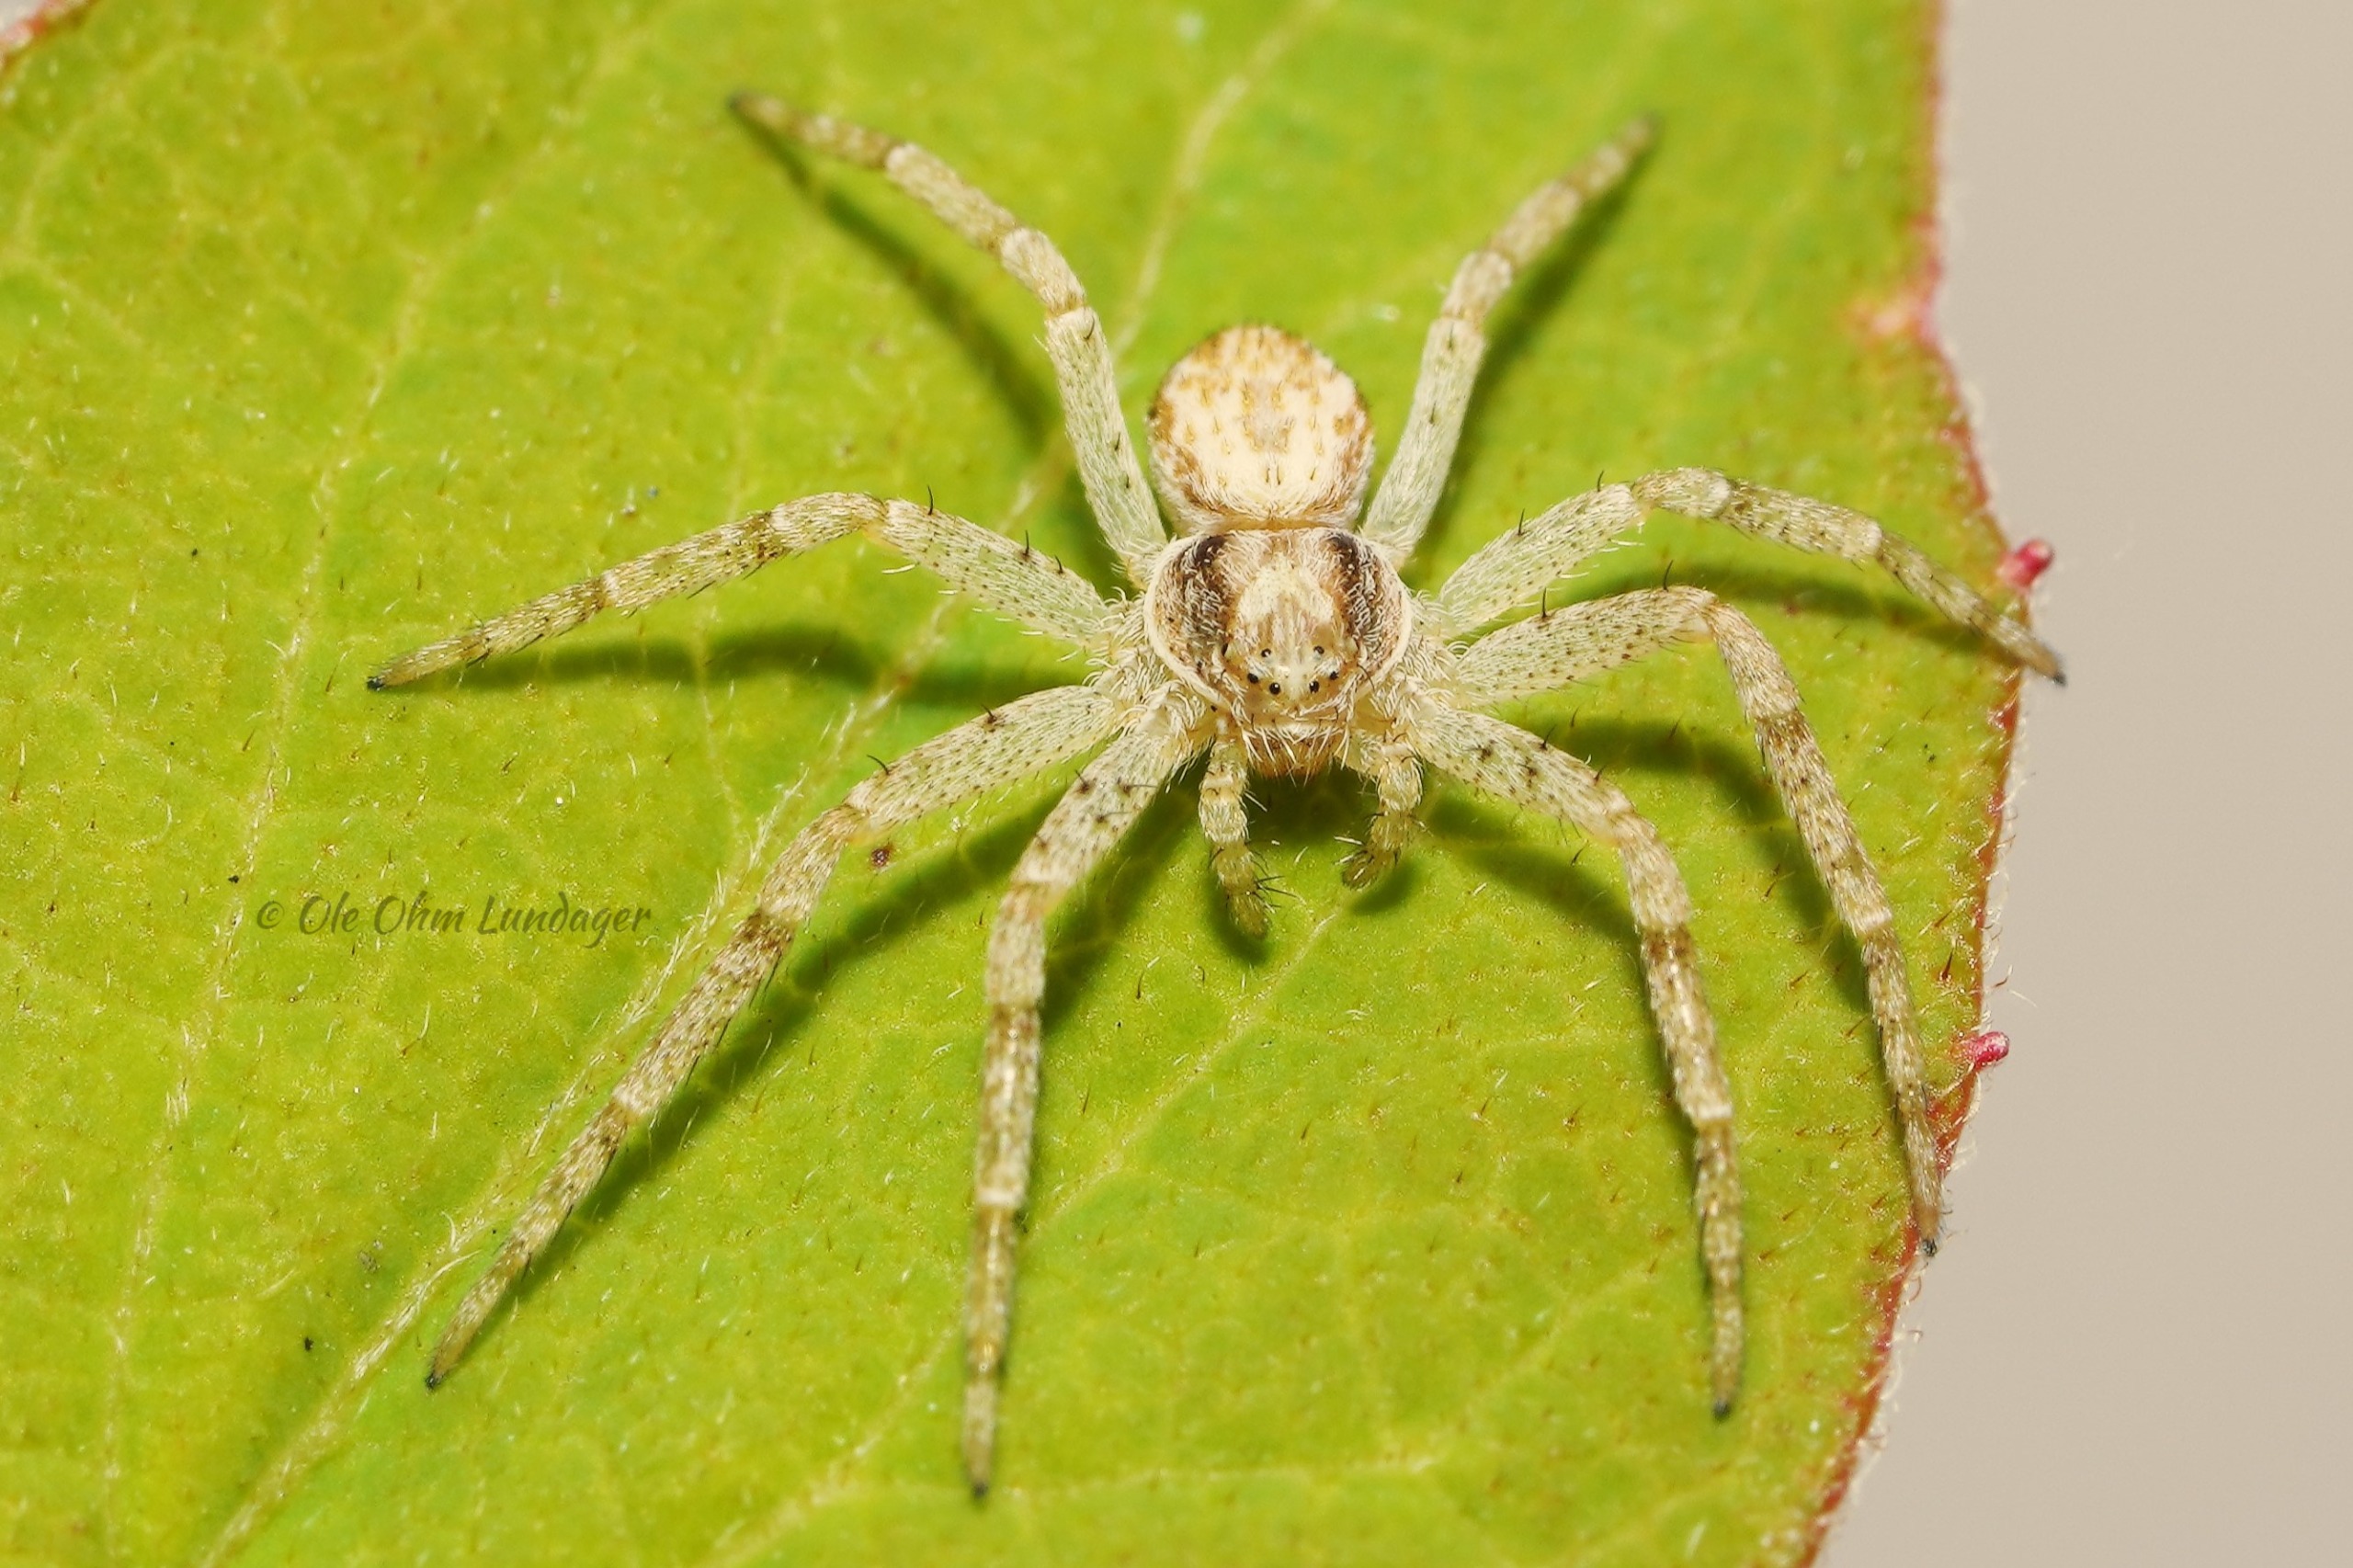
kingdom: Animalia
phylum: Arthropoda
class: Arachnida
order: Araneae
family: Philodromidae
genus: Philodromus
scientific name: Philodromus dispar
